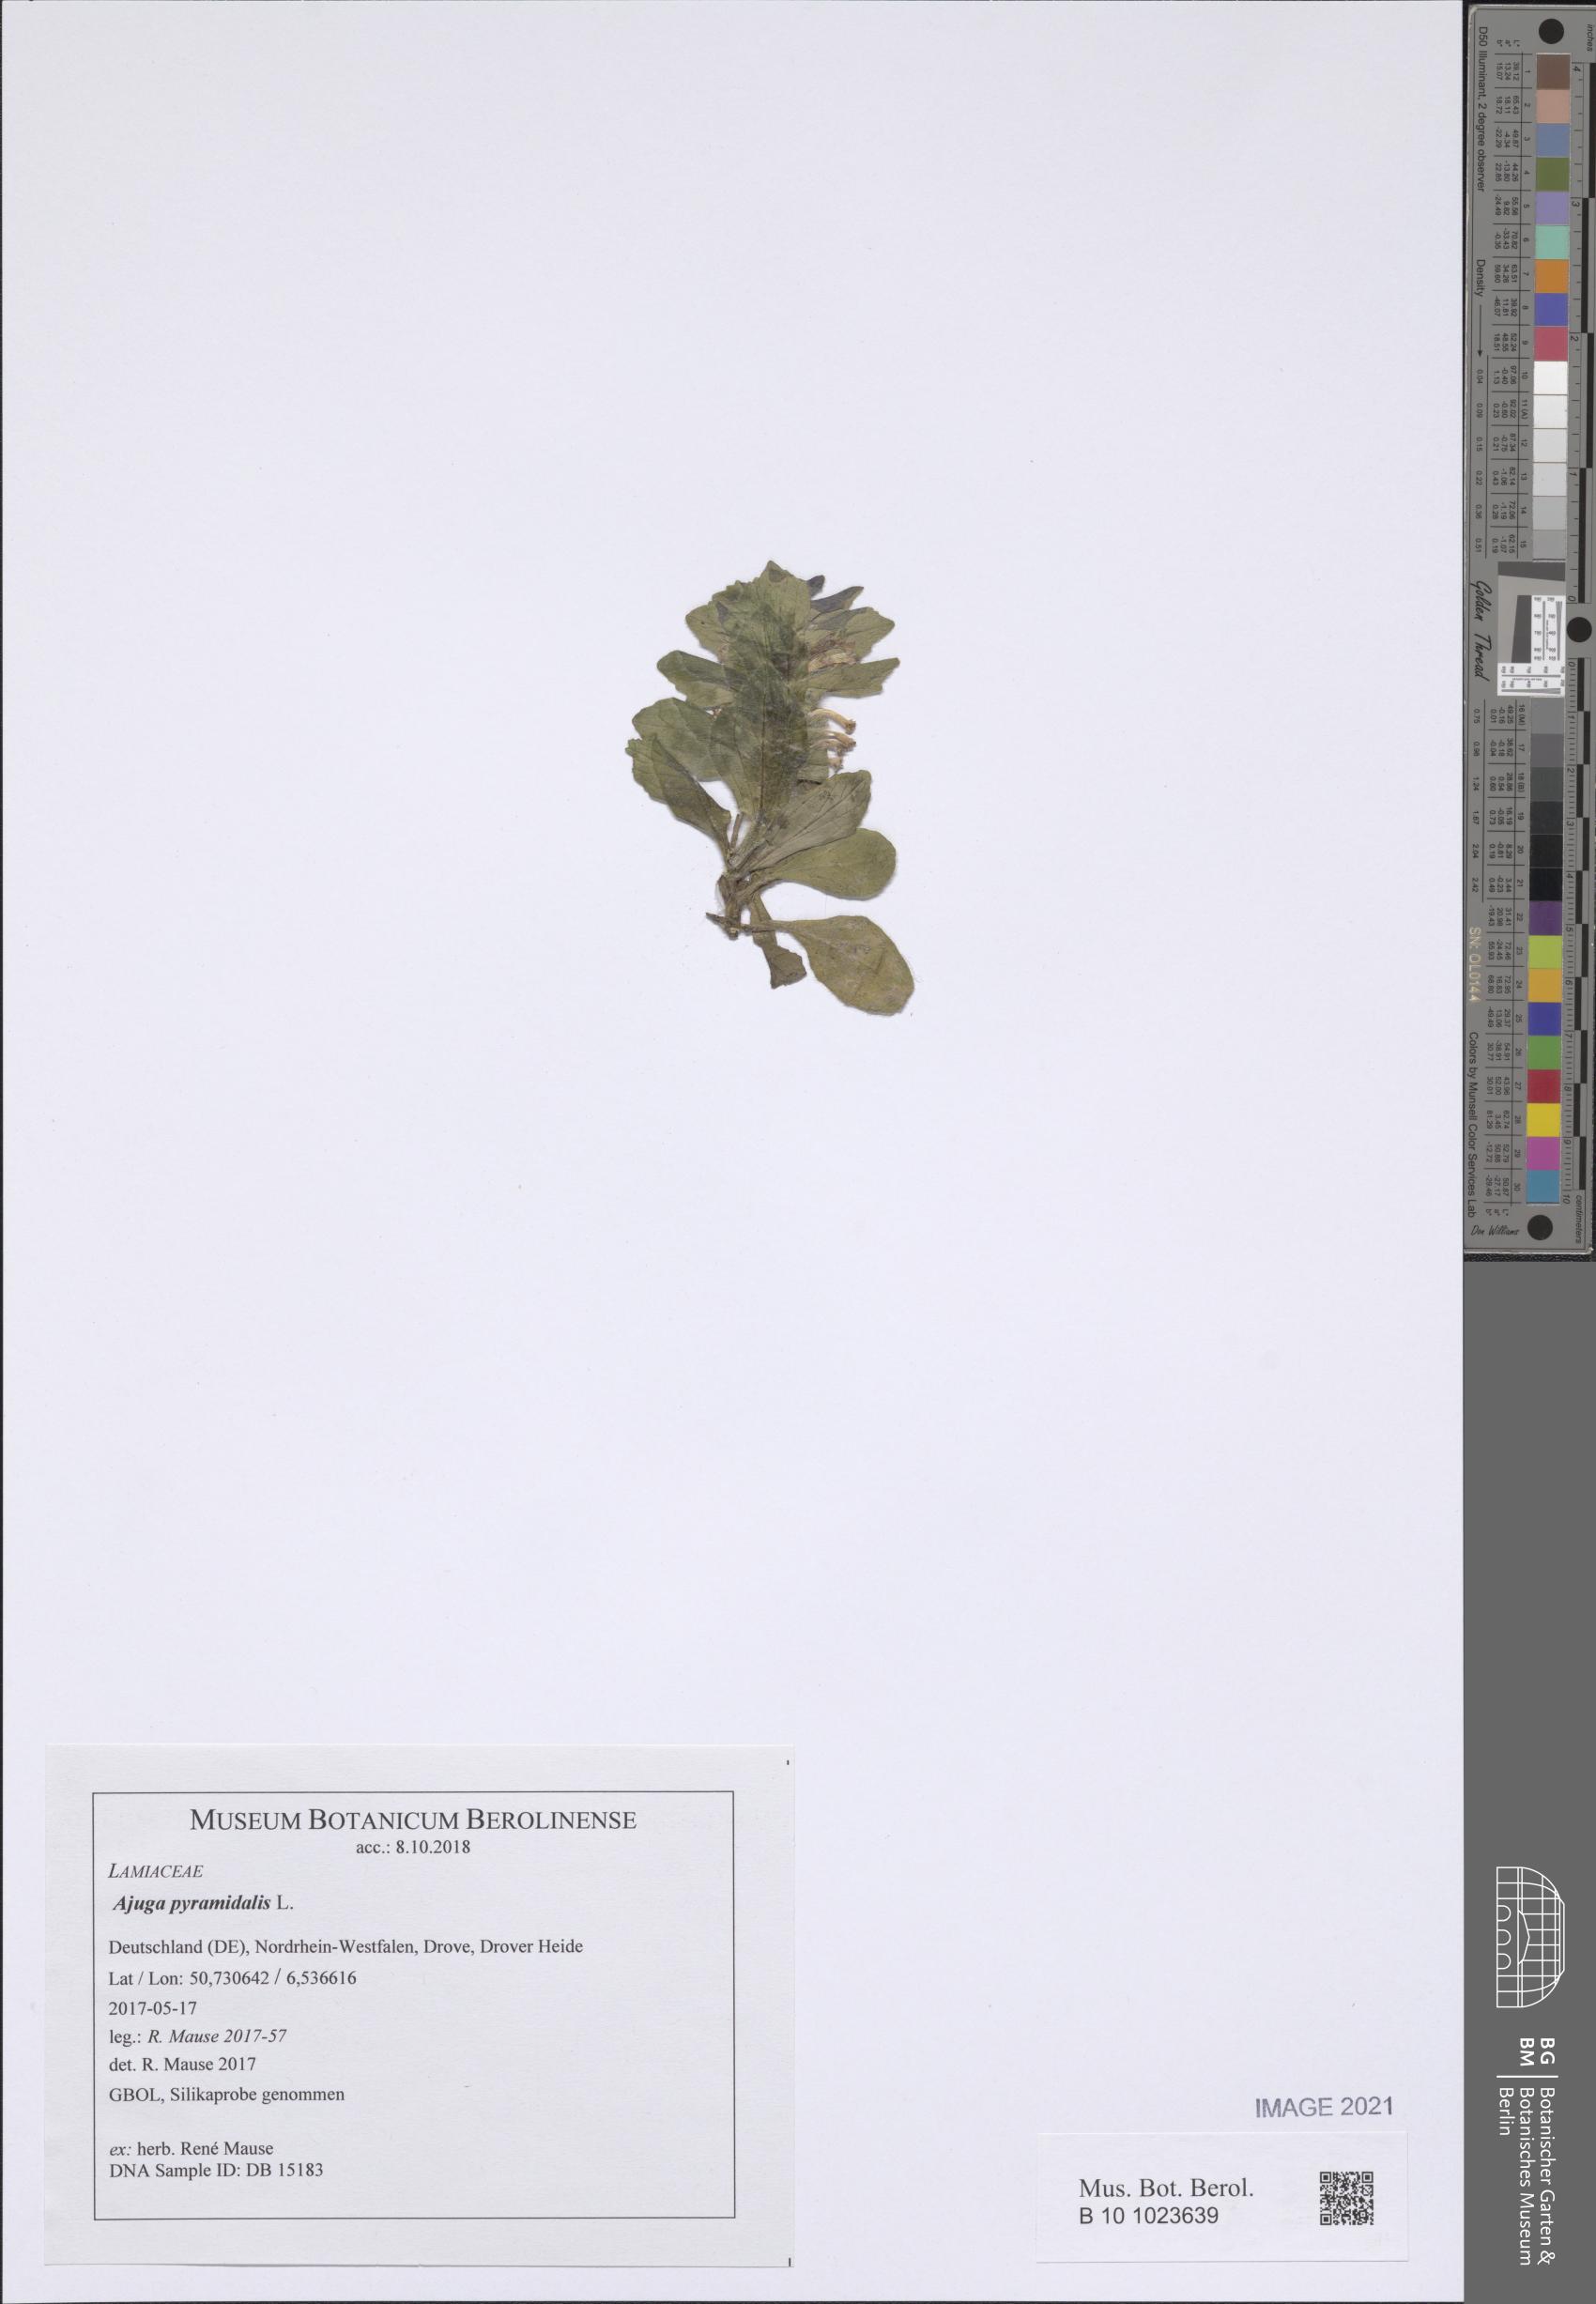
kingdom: Plantae
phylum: Tracheophyta
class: Magnoliopsida
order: Lamiales
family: Lamiaceae
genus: Ajuga
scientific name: Ajuga pyramidalis
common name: Pyramid bugle
